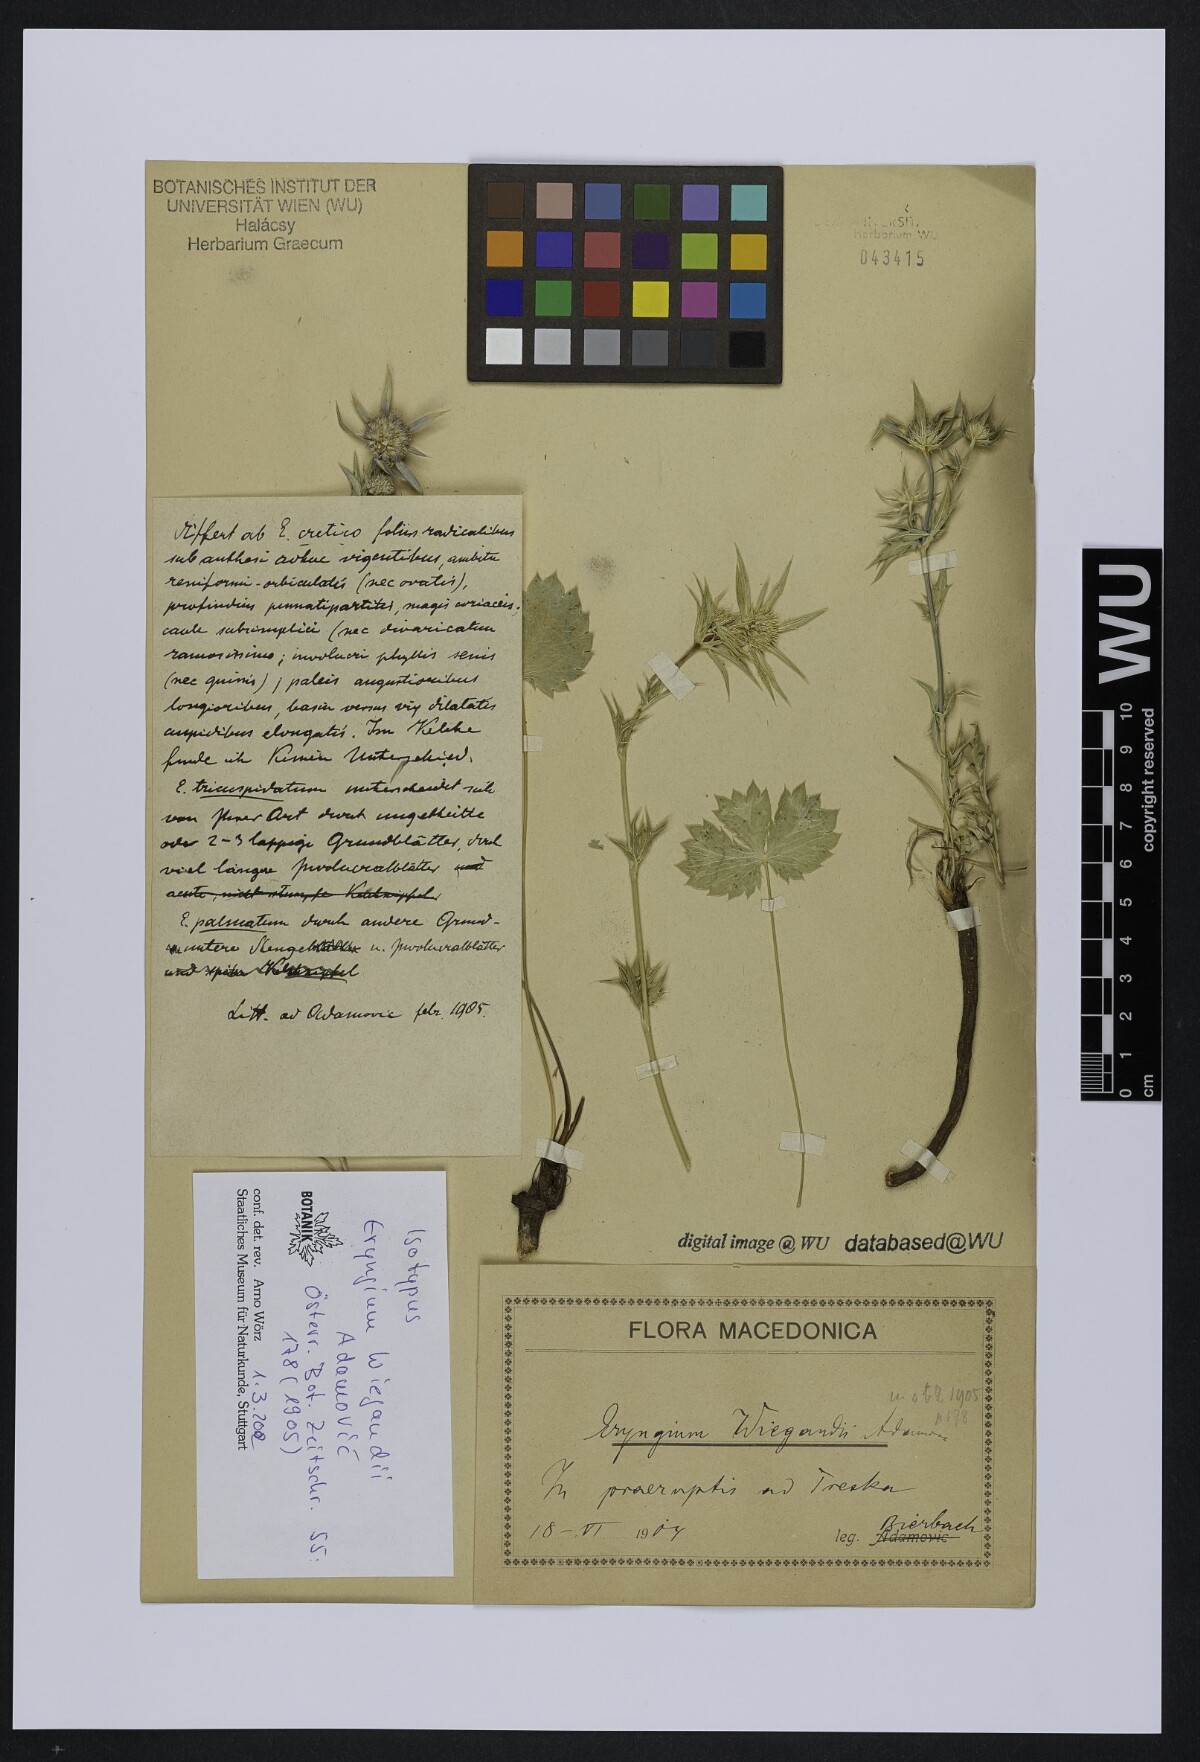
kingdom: Plantae
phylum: Tracheophyta
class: Magnoliopsida
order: Apiales
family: Apiaceae
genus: Eryngium
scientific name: Eryngium wiegandii
